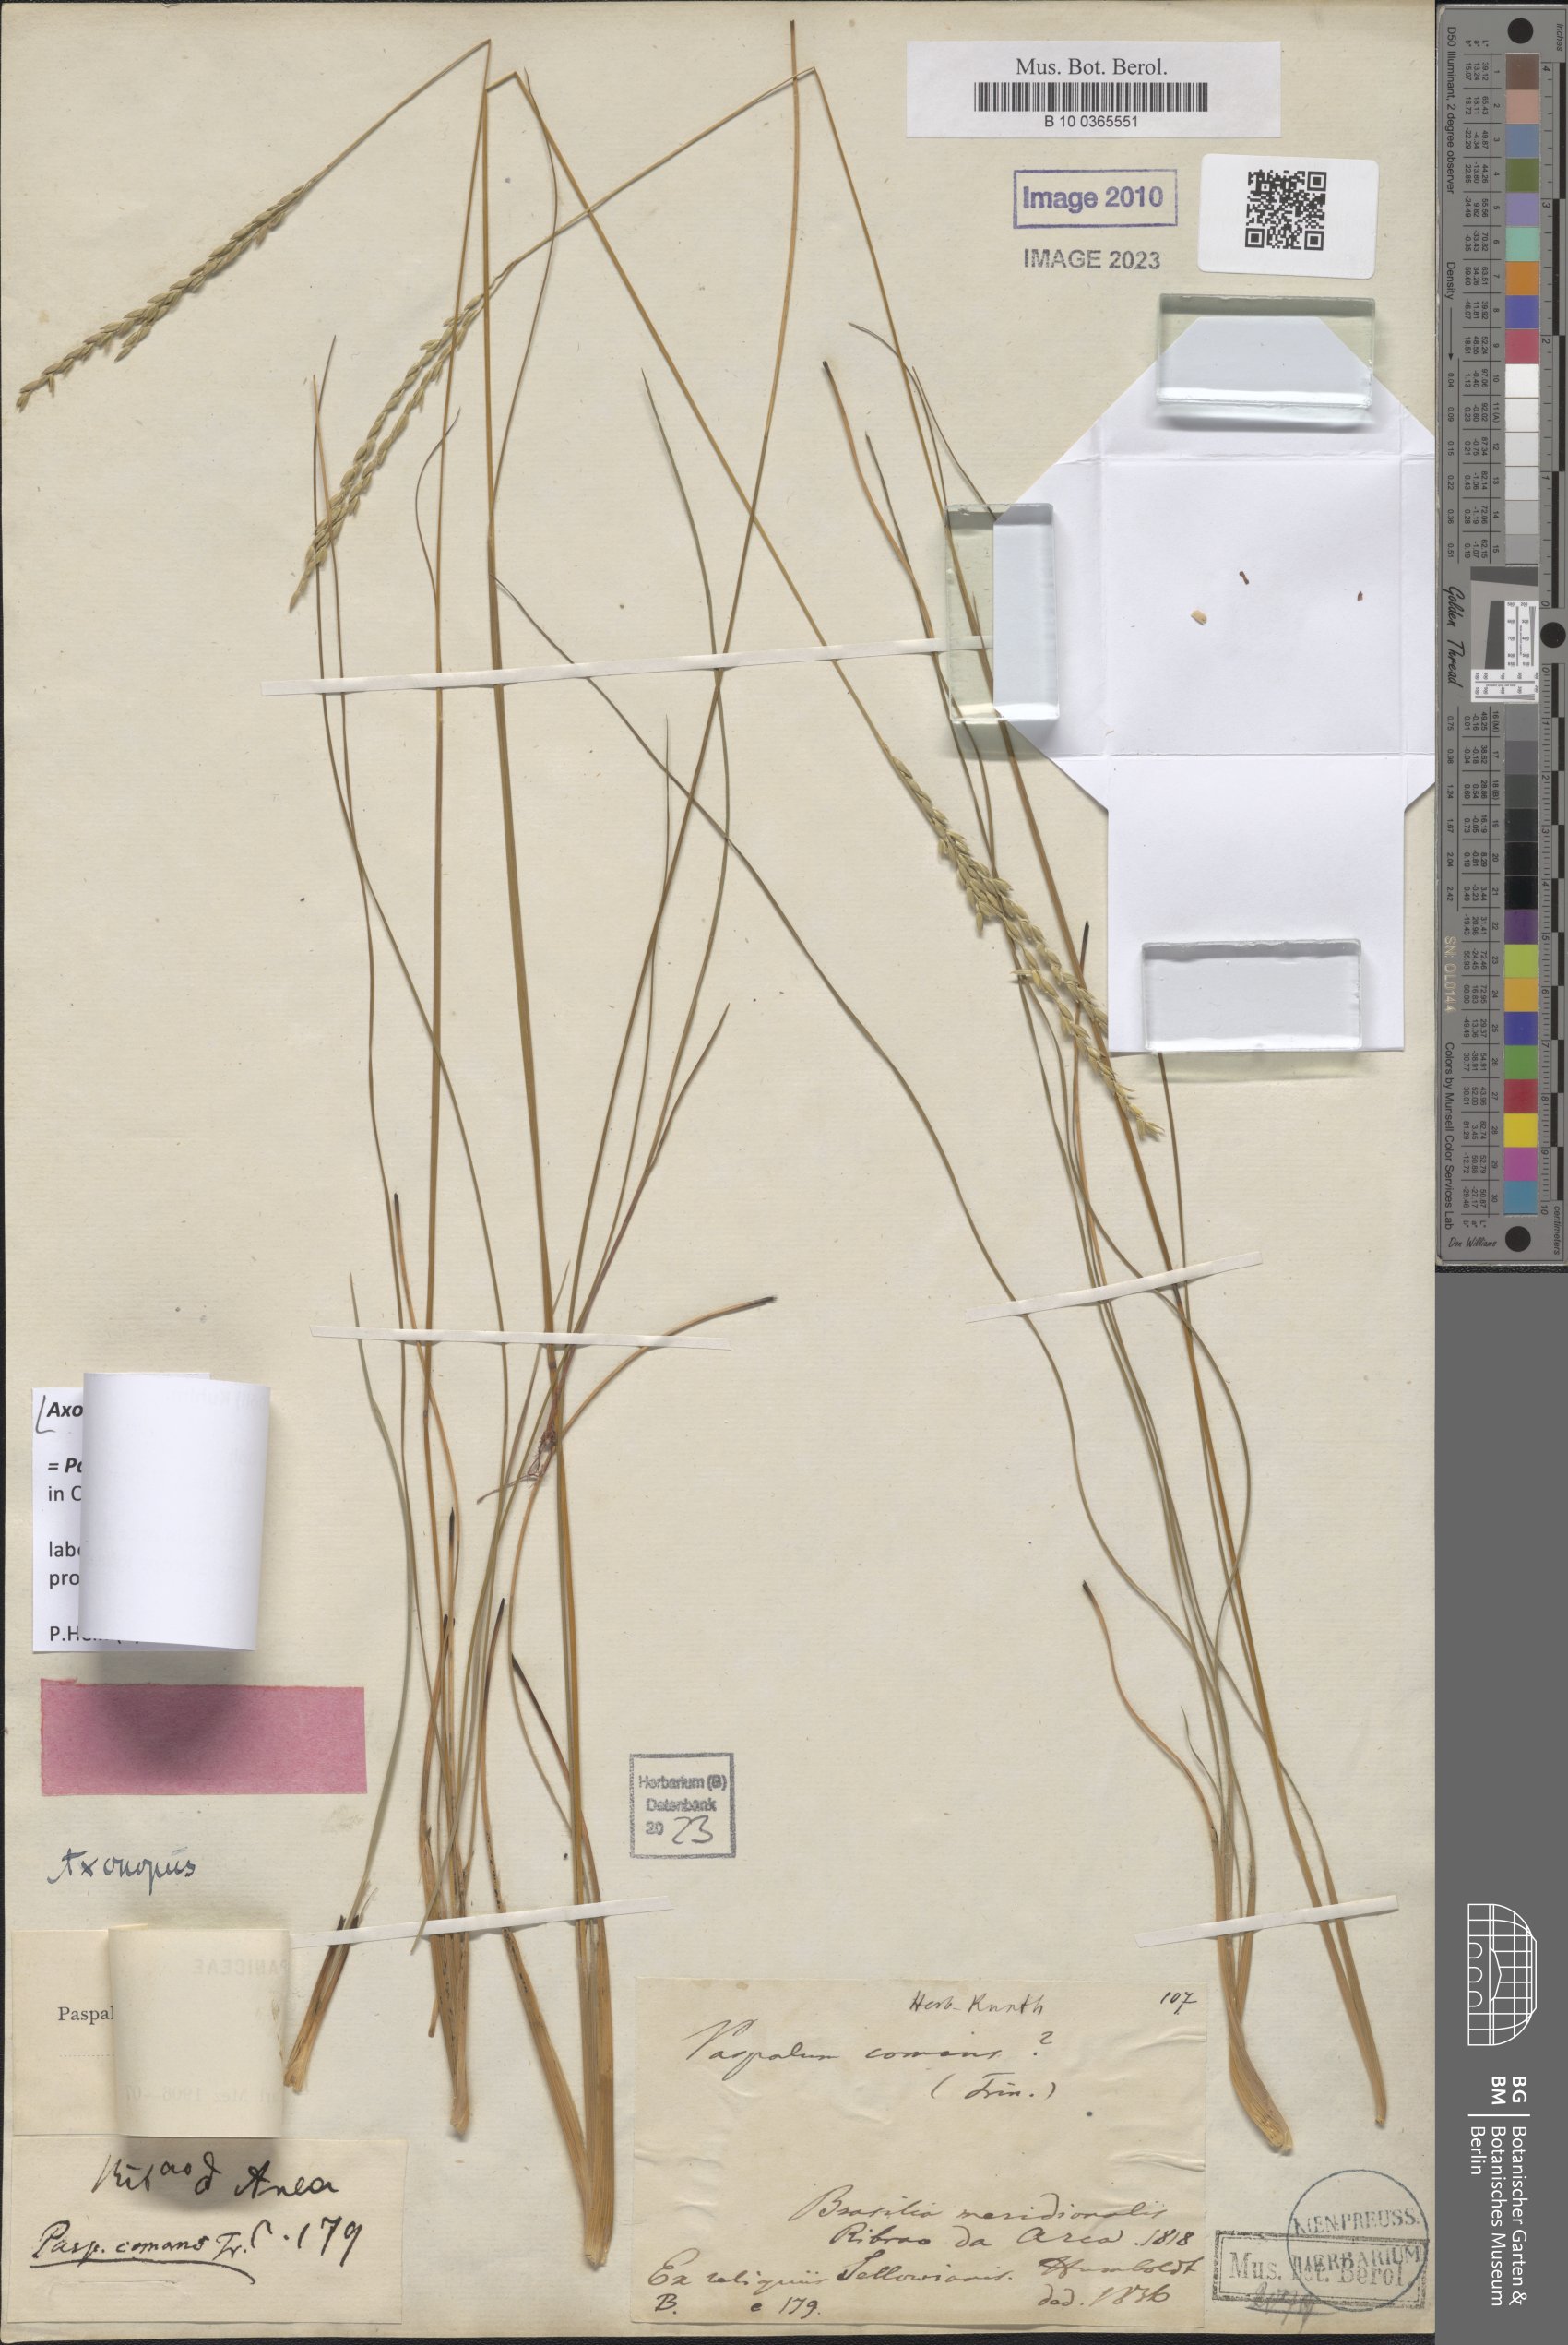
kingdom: Plantae
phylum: Tracheophyta
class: Liliopsida
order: Poales
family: Poaceae
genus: Axonopus
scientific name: Axonopus comans
